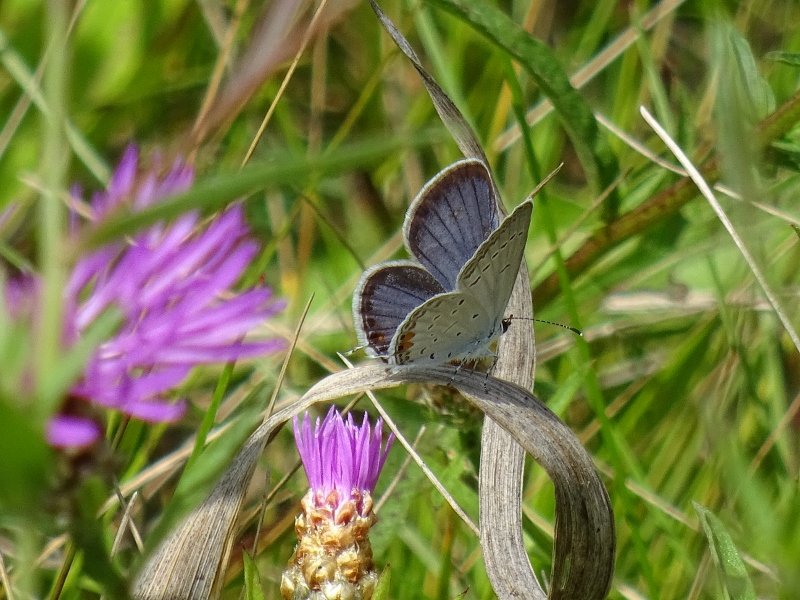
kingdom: Animalia
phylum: Arthropoda
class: Insecta
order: Lepidoptera
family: Lycaenidae
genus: Elkalyce
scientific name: Elkalyce comyntas
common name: Eastern Tailed-Blue
